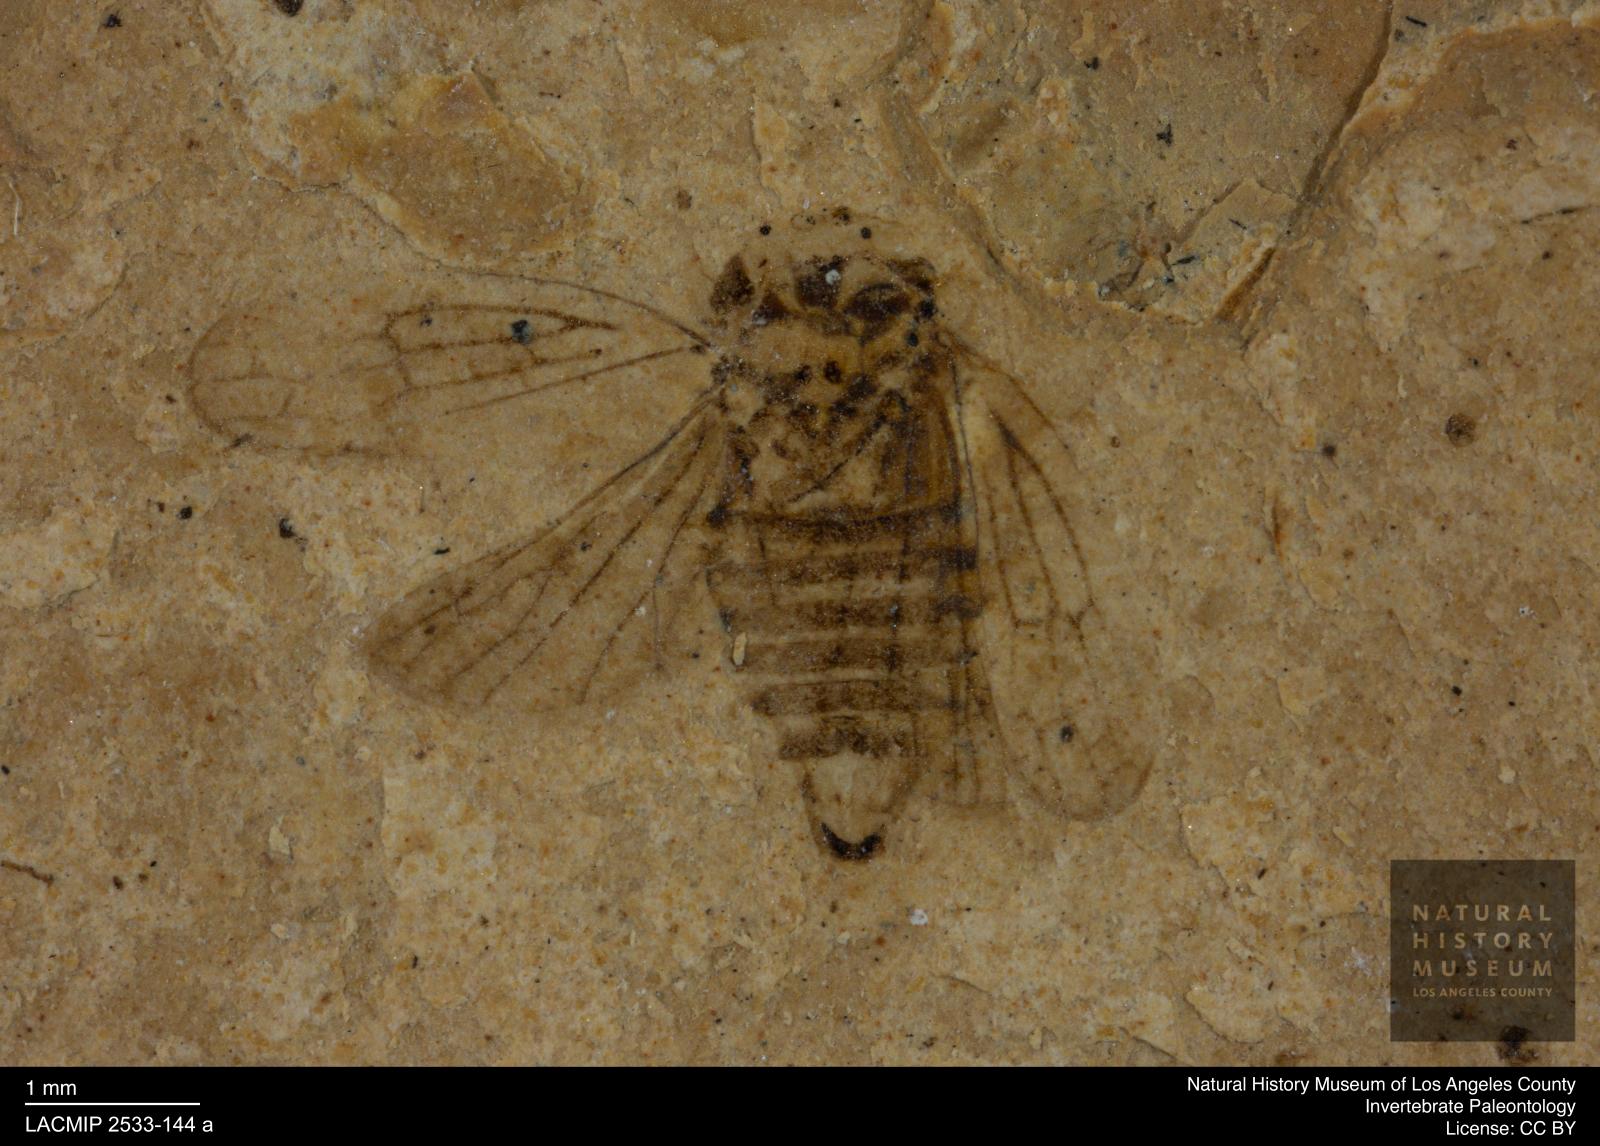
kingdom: Animalia
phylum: Arthropoda
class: Insecta
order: Hemiptera
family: Cicadellidae
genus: Iassus
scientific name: Iassus sepultus
